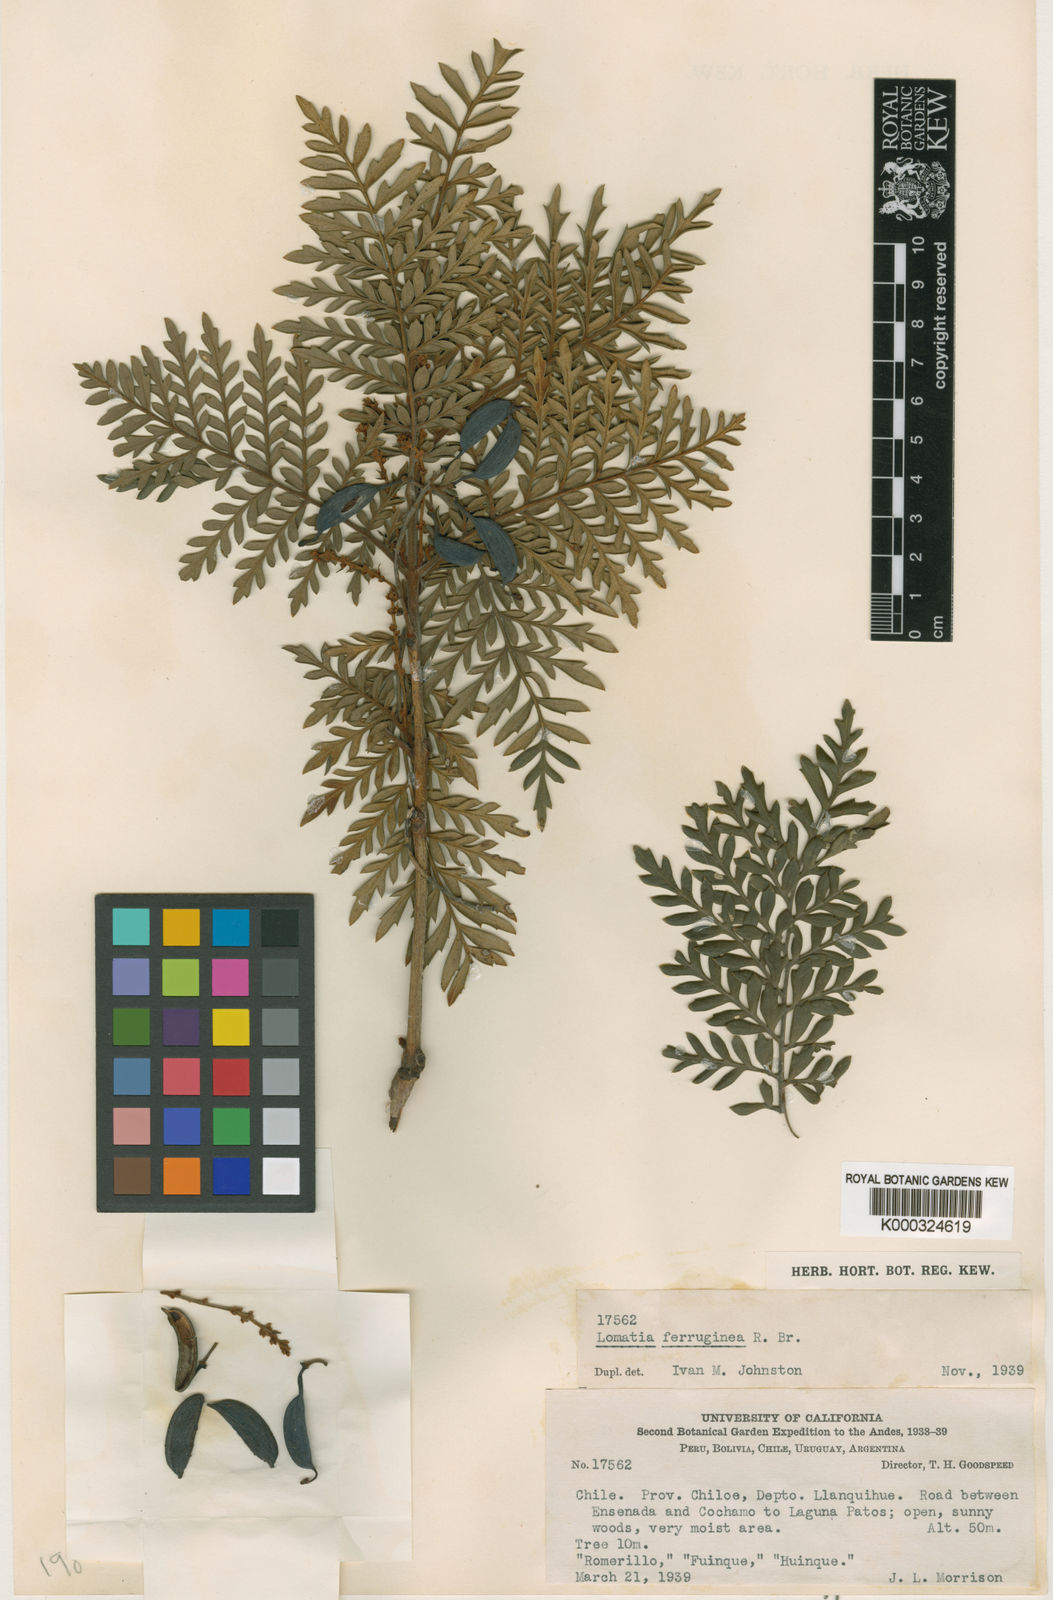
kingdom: Plantae
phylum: Tracheophyta
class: Magnoliopsida
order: Proteales
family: Proteaceae
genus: Lomatia
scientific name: Lomatia ferruginea
